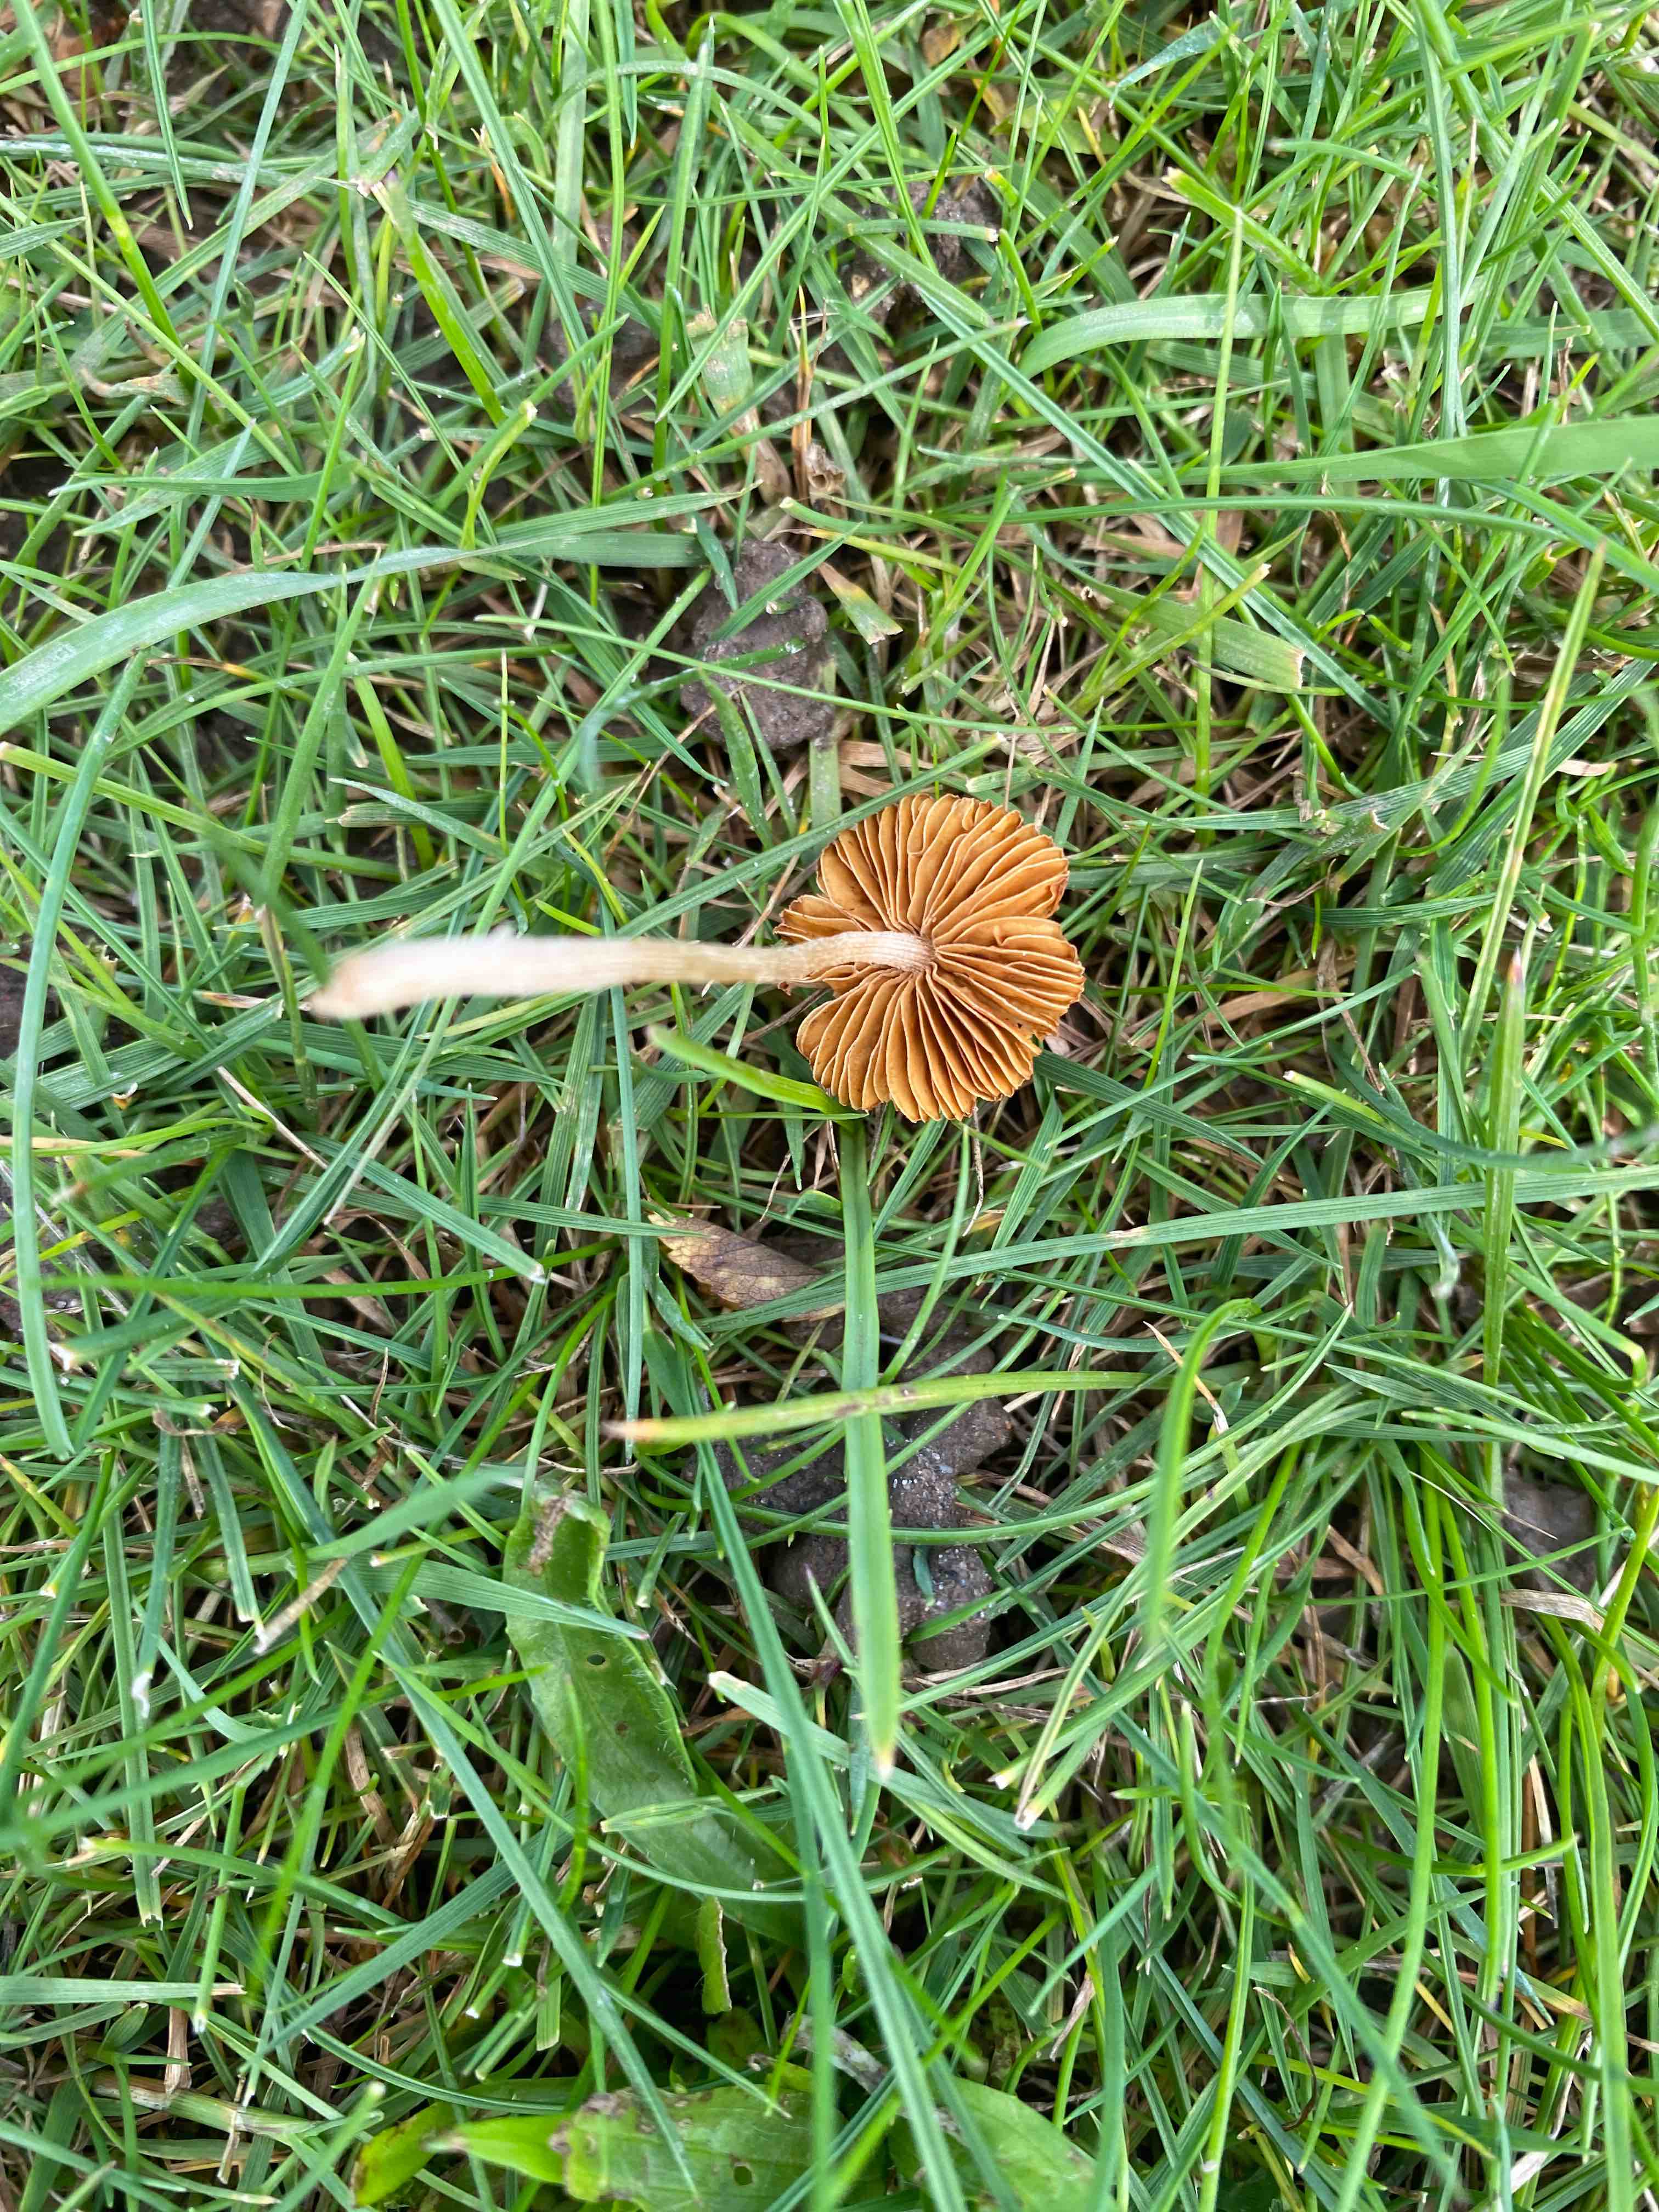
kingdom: Fungi
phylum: Basidiomycota
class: Agaricomycetes
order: Agaricales
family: Bolbitiaceae
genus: Pholiotina
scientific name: Pholiotina sulcata
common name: plisseret dansehat
